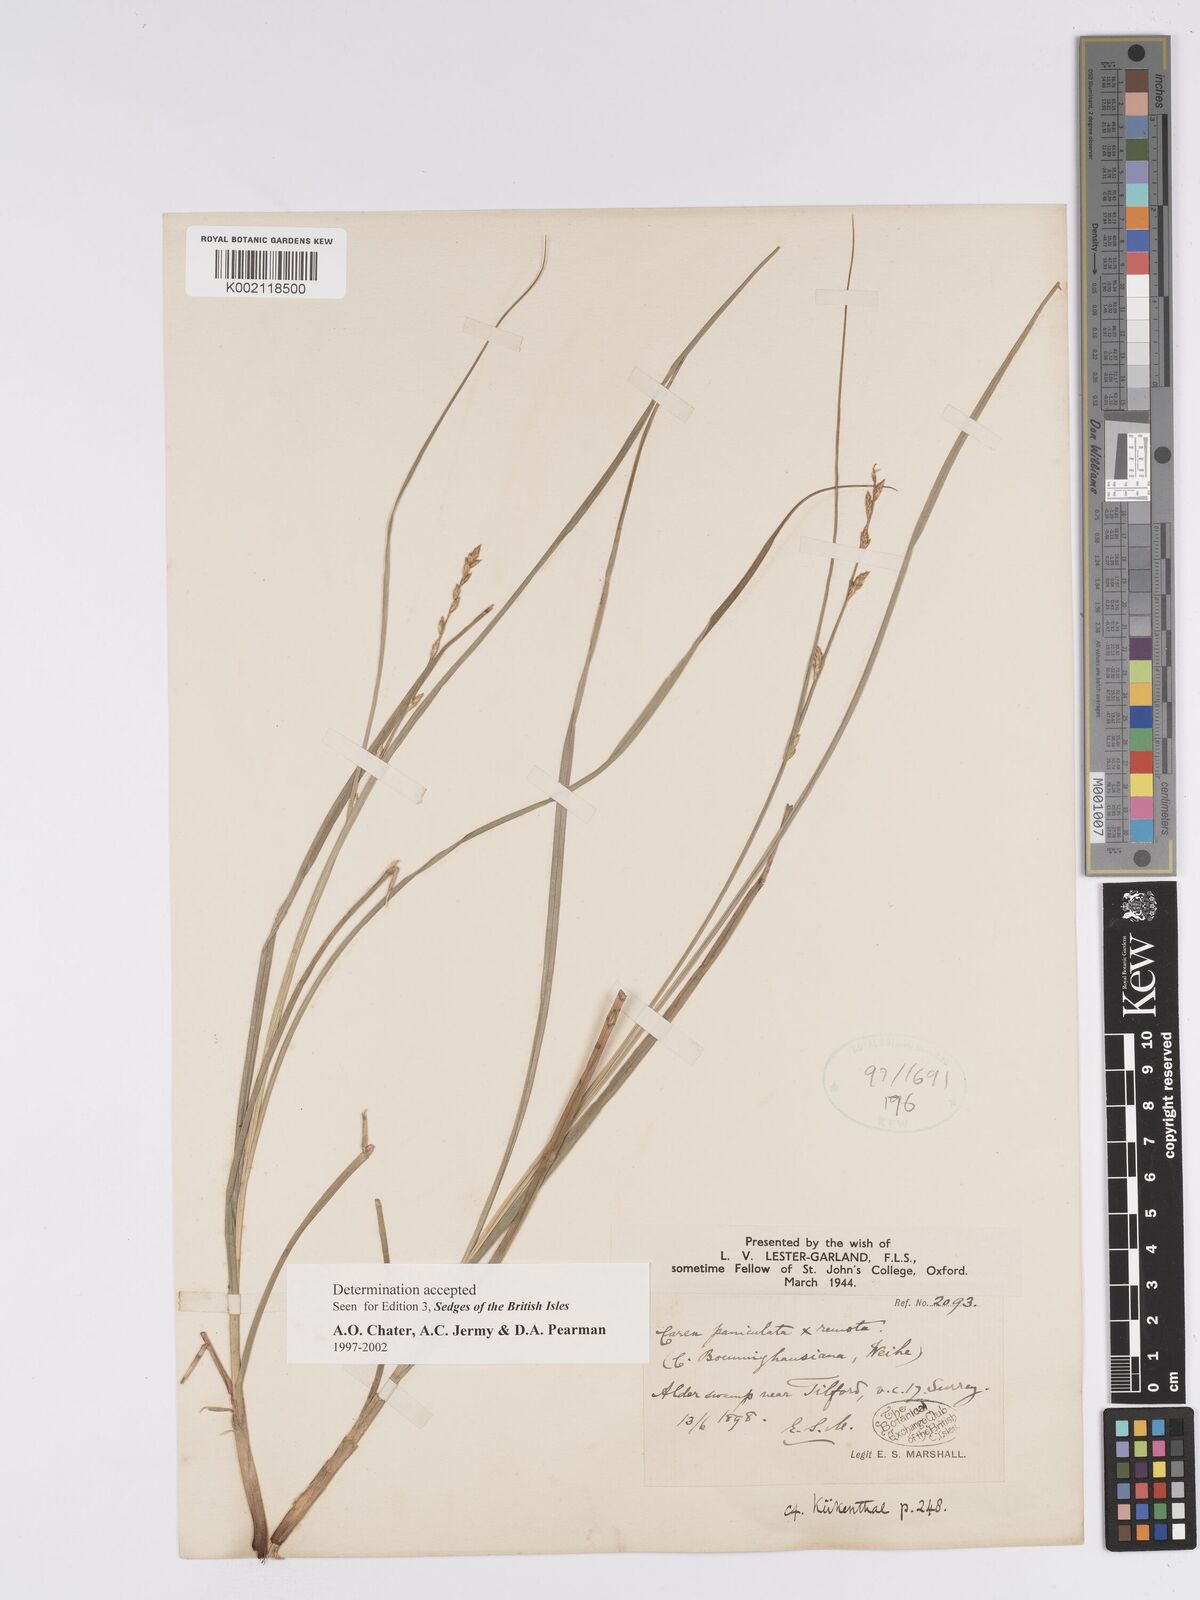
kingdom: Plantae
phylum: Tracheophyta
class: Liliopsida
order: Poales
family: Cyperaceae
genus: Carex
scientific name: Carex boenninghausiana
